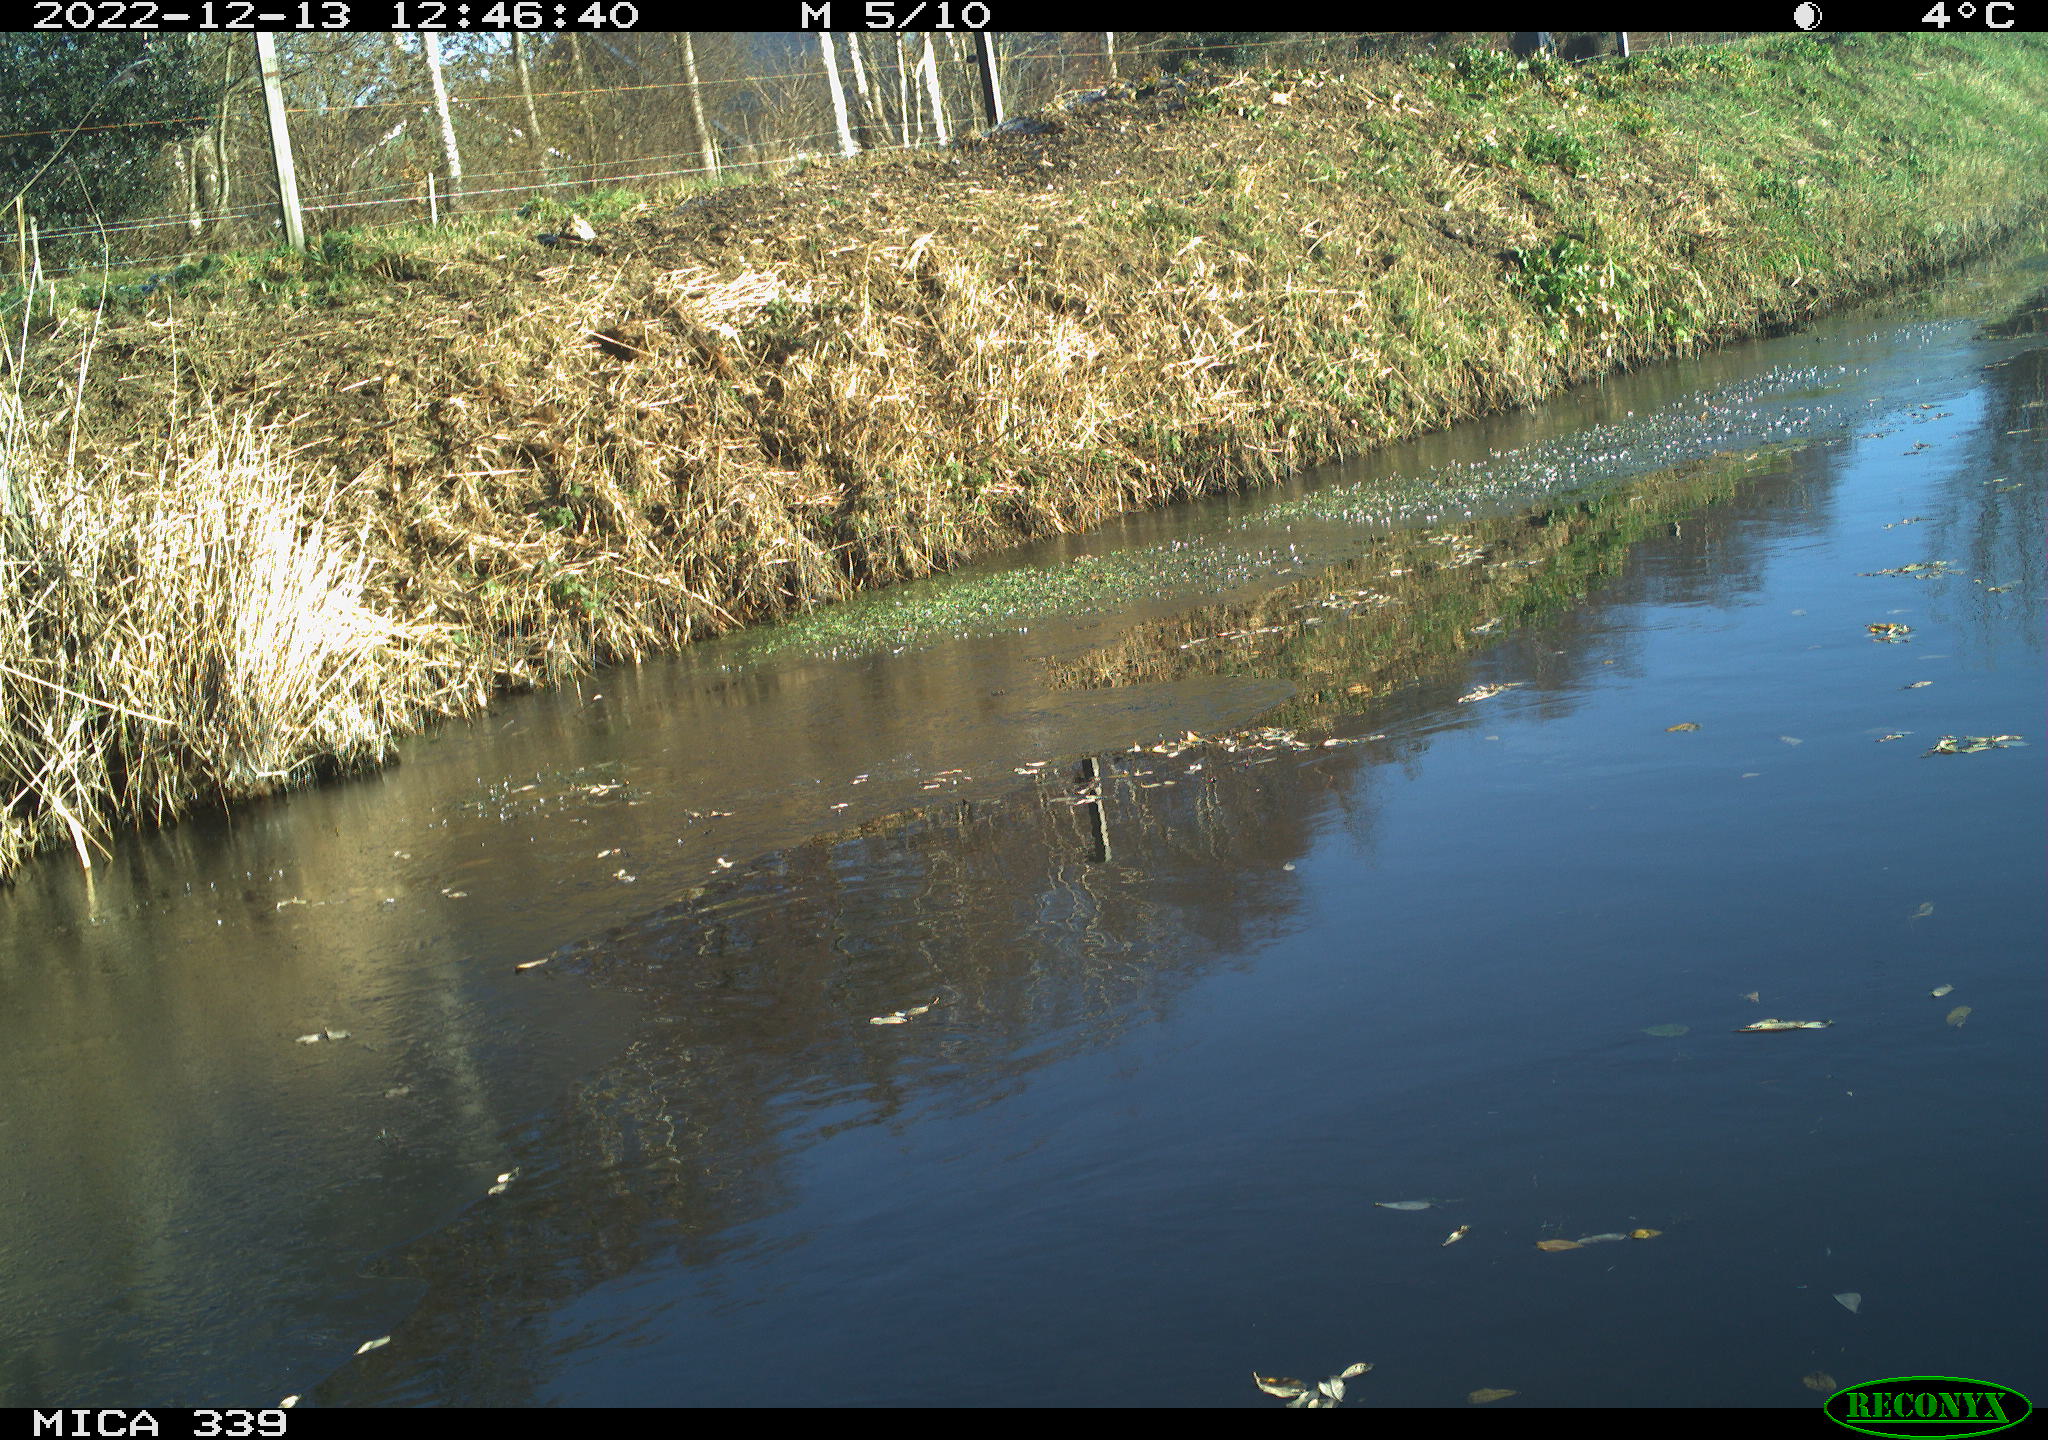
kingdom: Animalia
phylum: Chordata
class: Aves
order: Pelecaniformes
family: Ardeidae
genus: Ardea
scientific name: Ardea cinerea
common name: Grey heron
